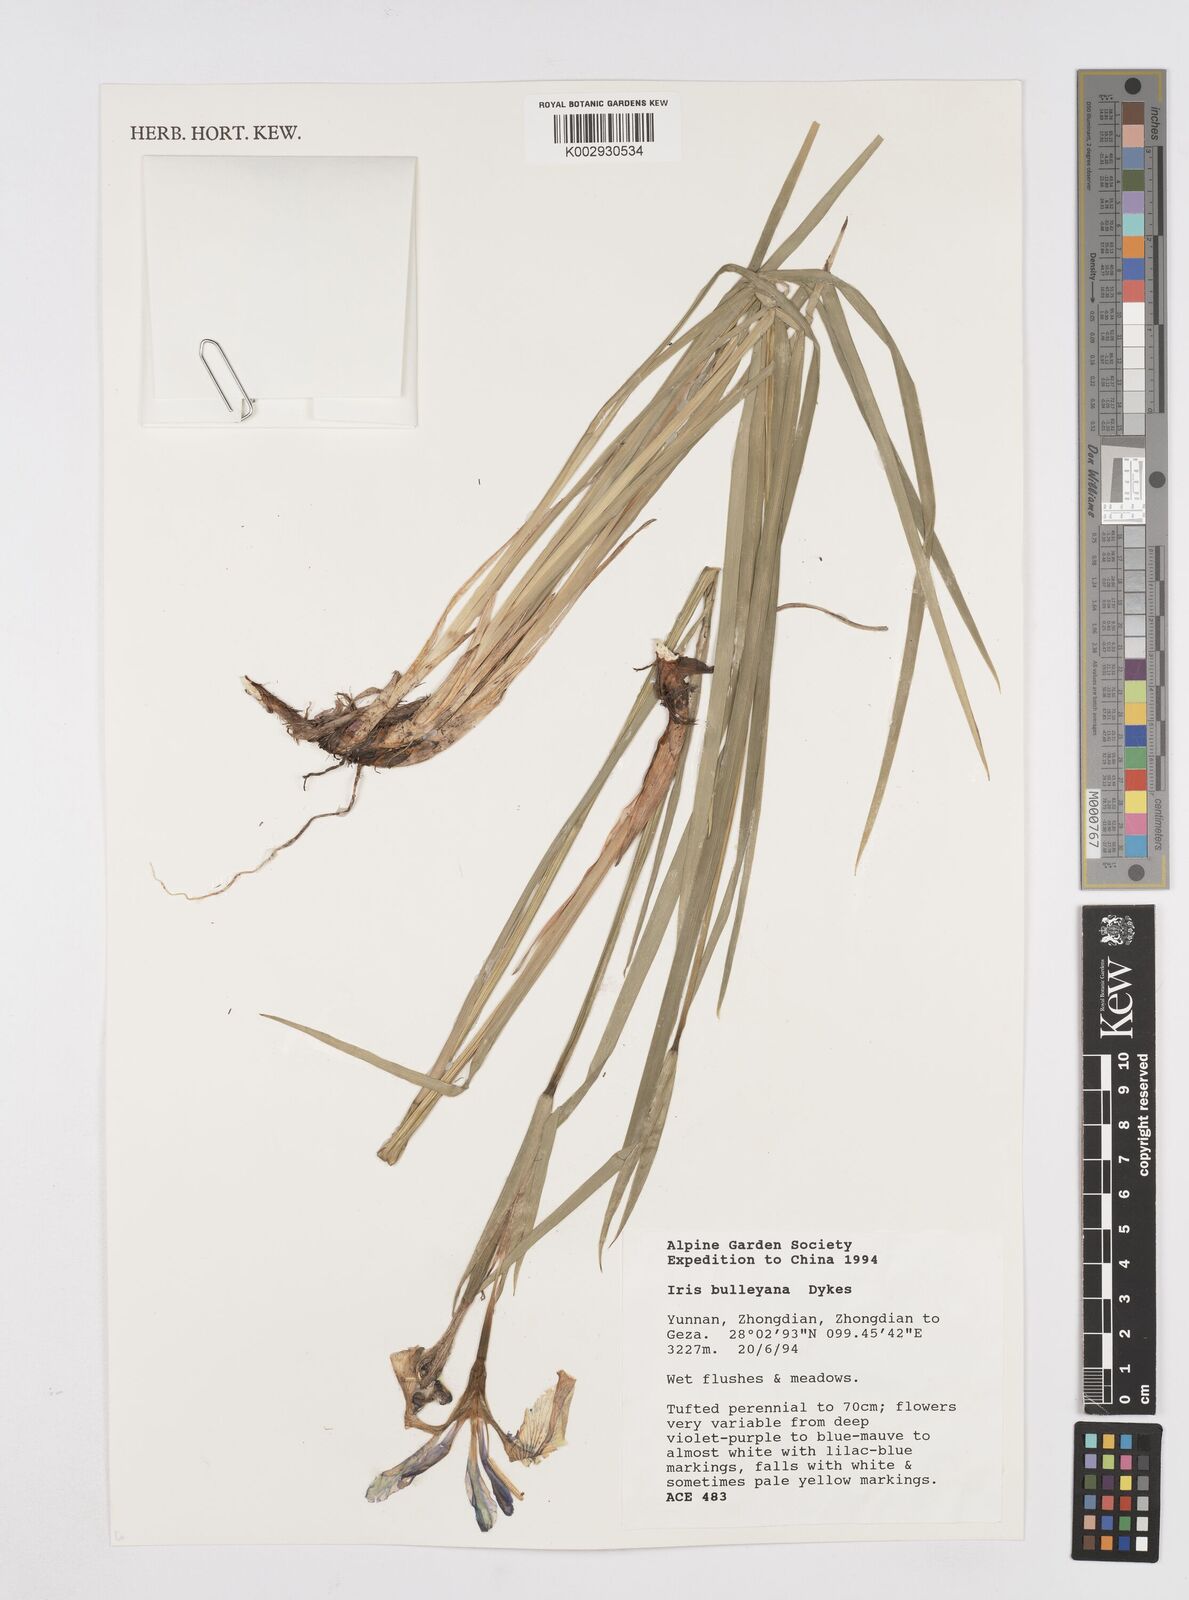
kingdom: Plantae
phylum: Tracheophyta
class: Liliopsida
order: Asparagales
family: Iridaceae
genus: Iris
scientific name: Iris bulleyana
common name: Southwest iris
